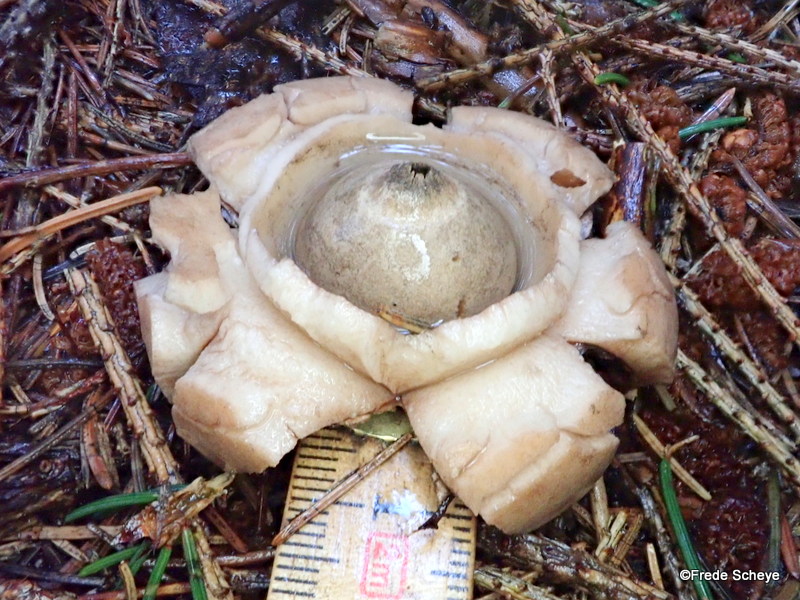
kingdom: Fungi
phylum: Basidiomycota
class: Agaricomycetes
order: Geastrales
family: Geastraceae
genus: Geastrum
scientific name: Geastrum michelianum
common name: kødet stjernebold
